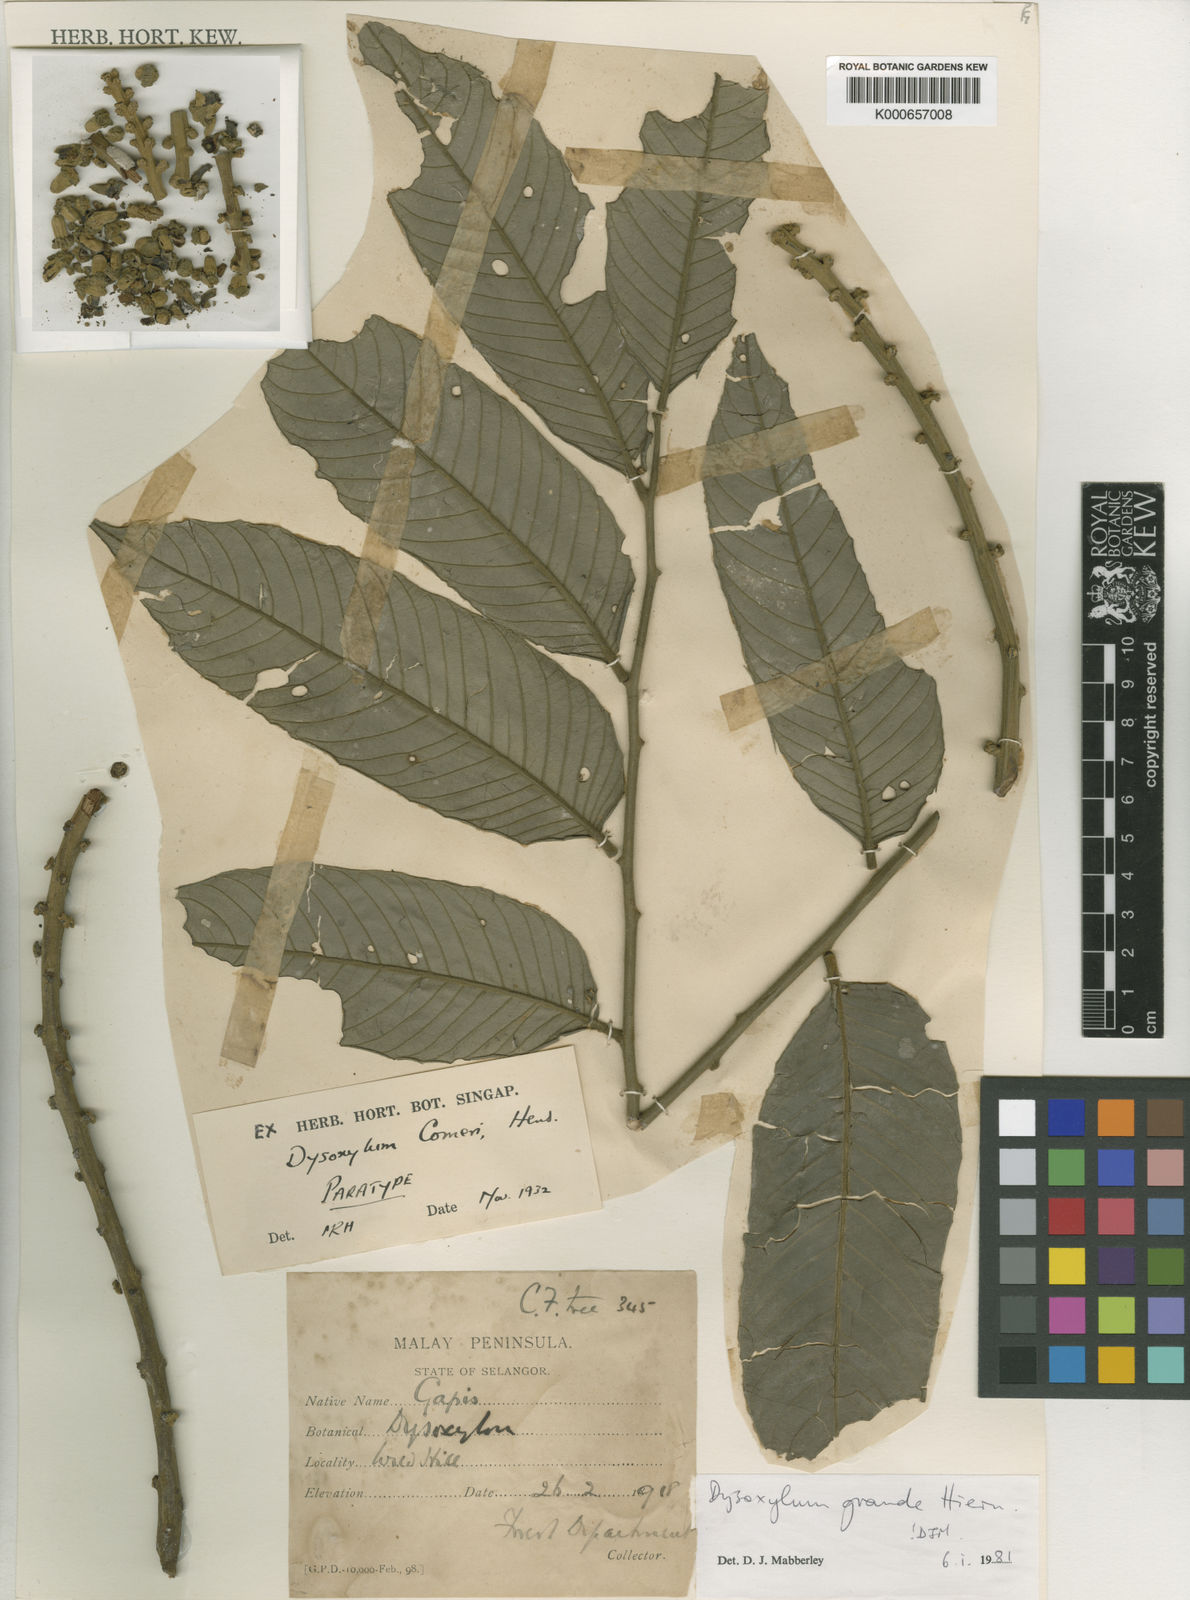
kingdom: Plantae
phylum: Tracheophyta
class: Magnoliopsida
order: Sapindales
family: Meliaceae
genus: Dysoxylum
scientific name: Dysoxylum grande
